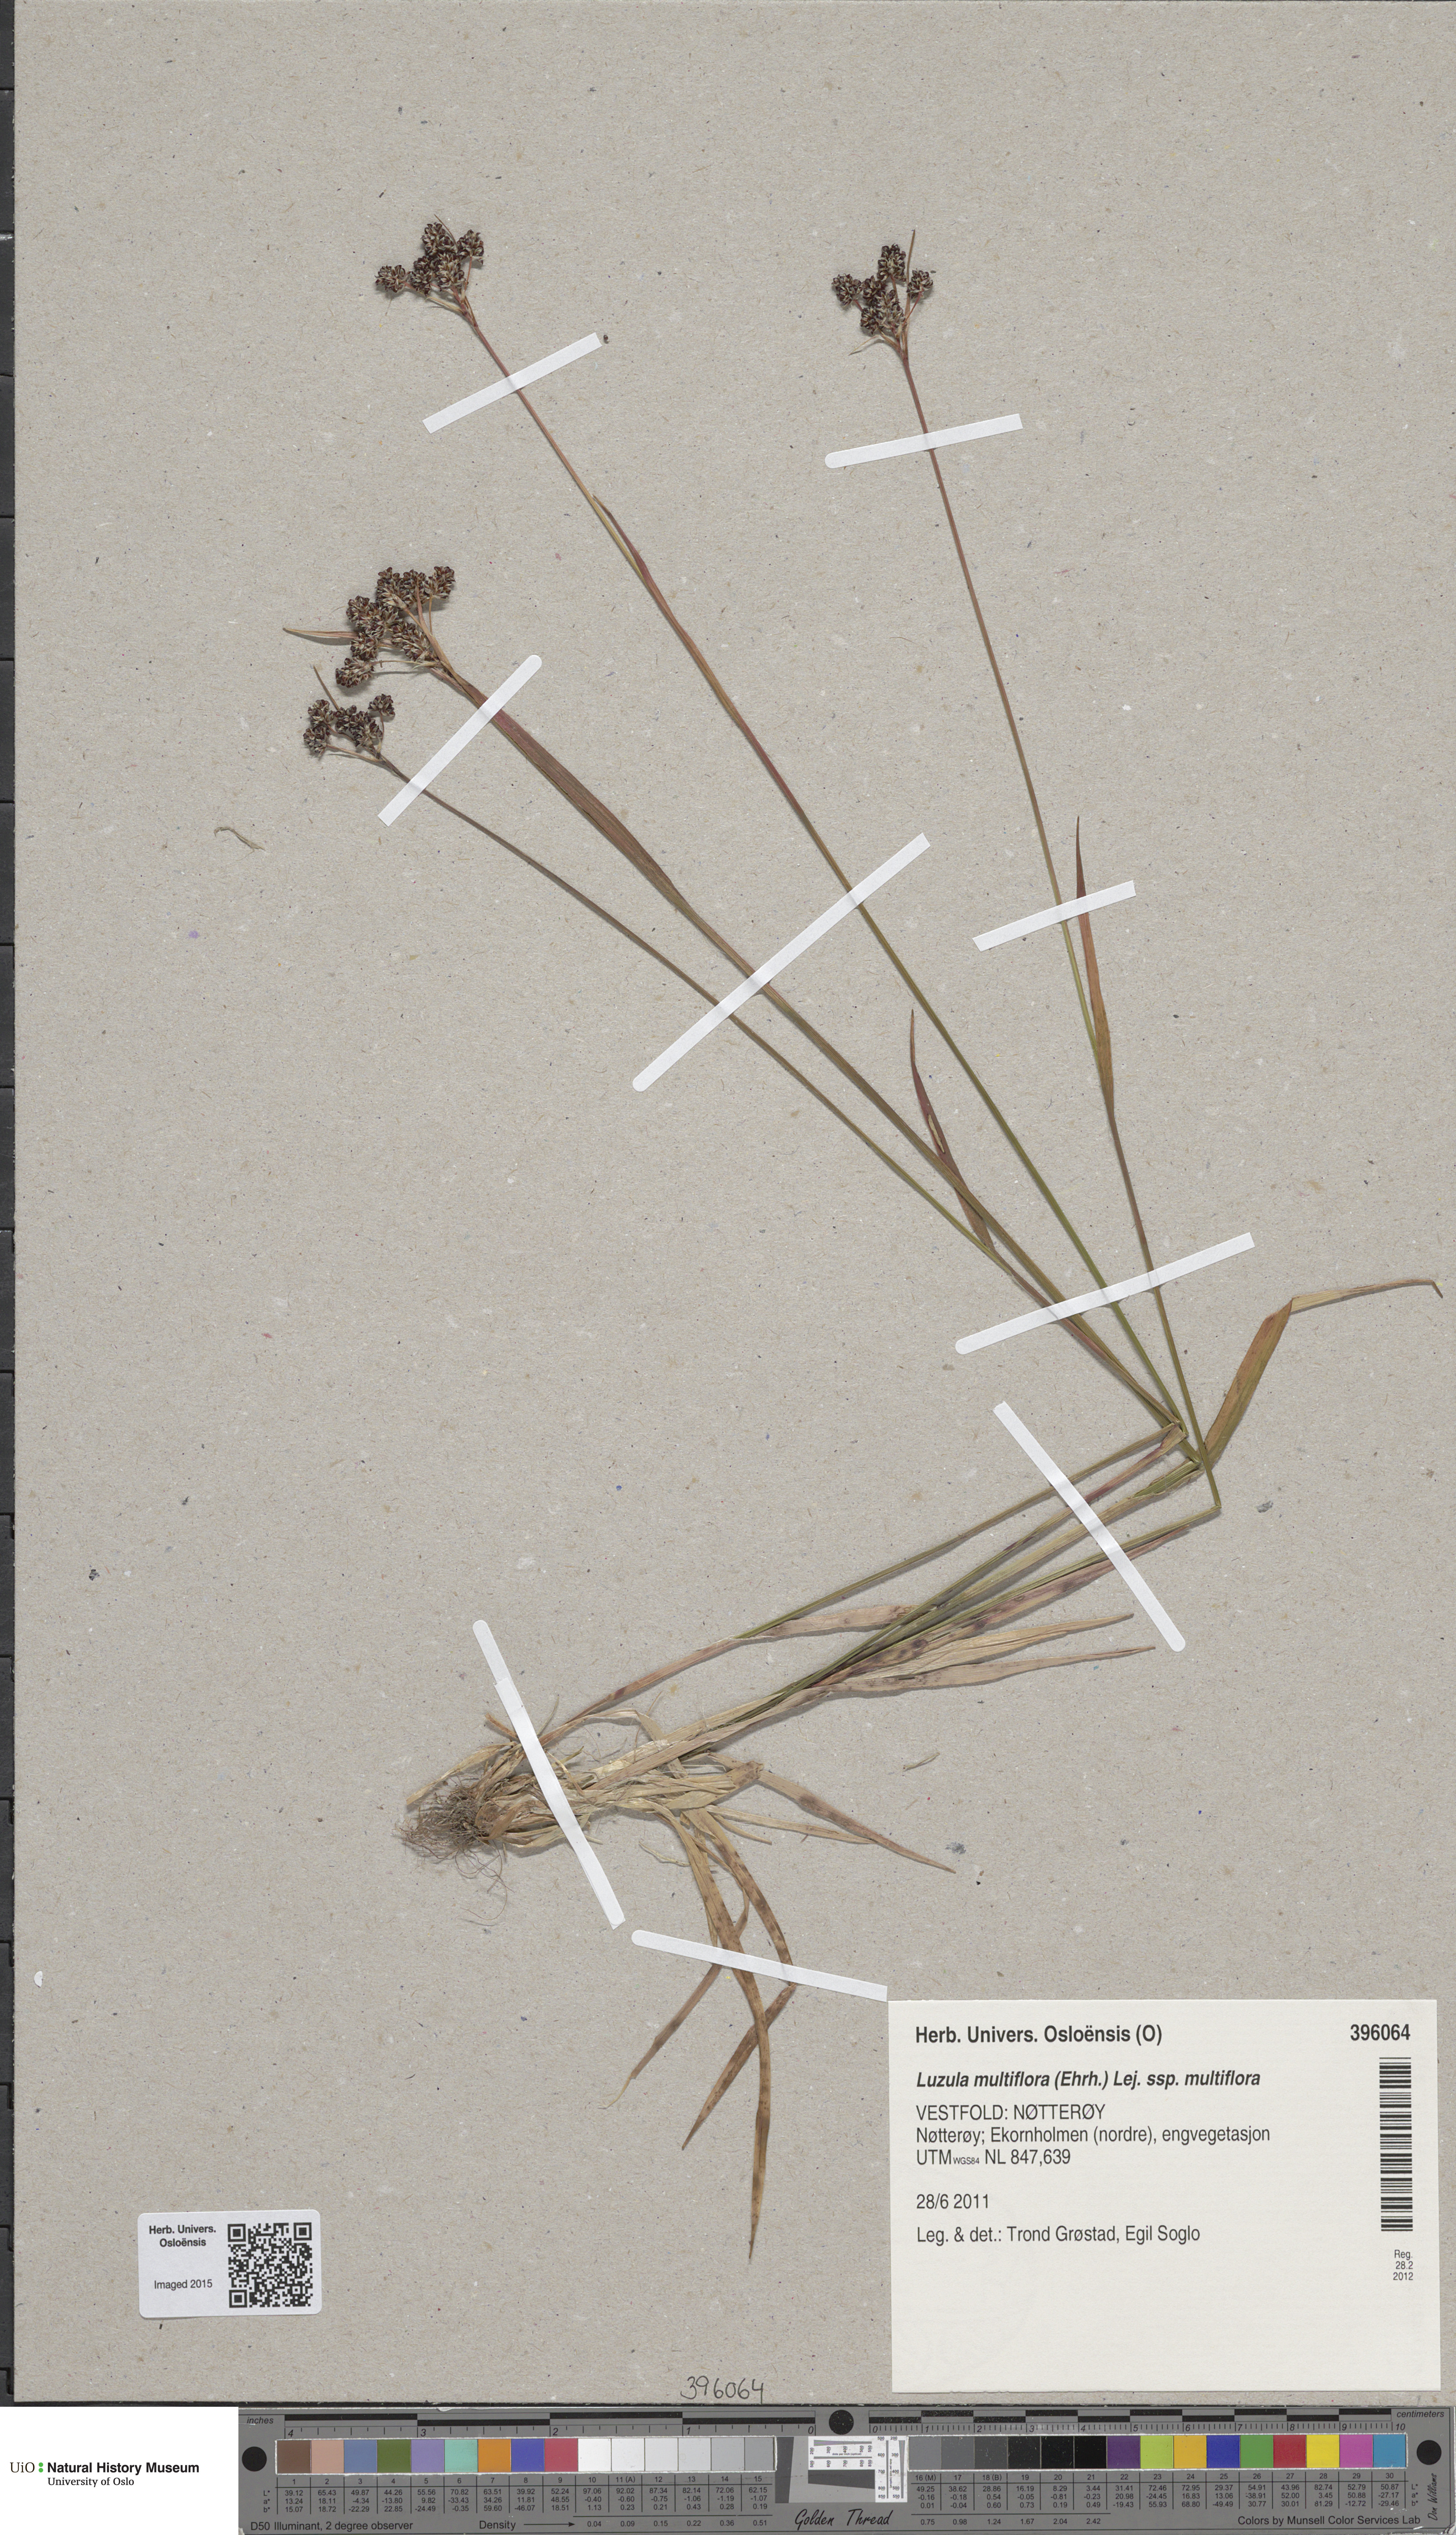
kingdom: Plantae
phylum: Tracheophyta
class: Liliopsida
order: Poales
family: Juncaceae
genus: Luzula
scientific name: Luzula multiflora
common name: Heath wood-rush
